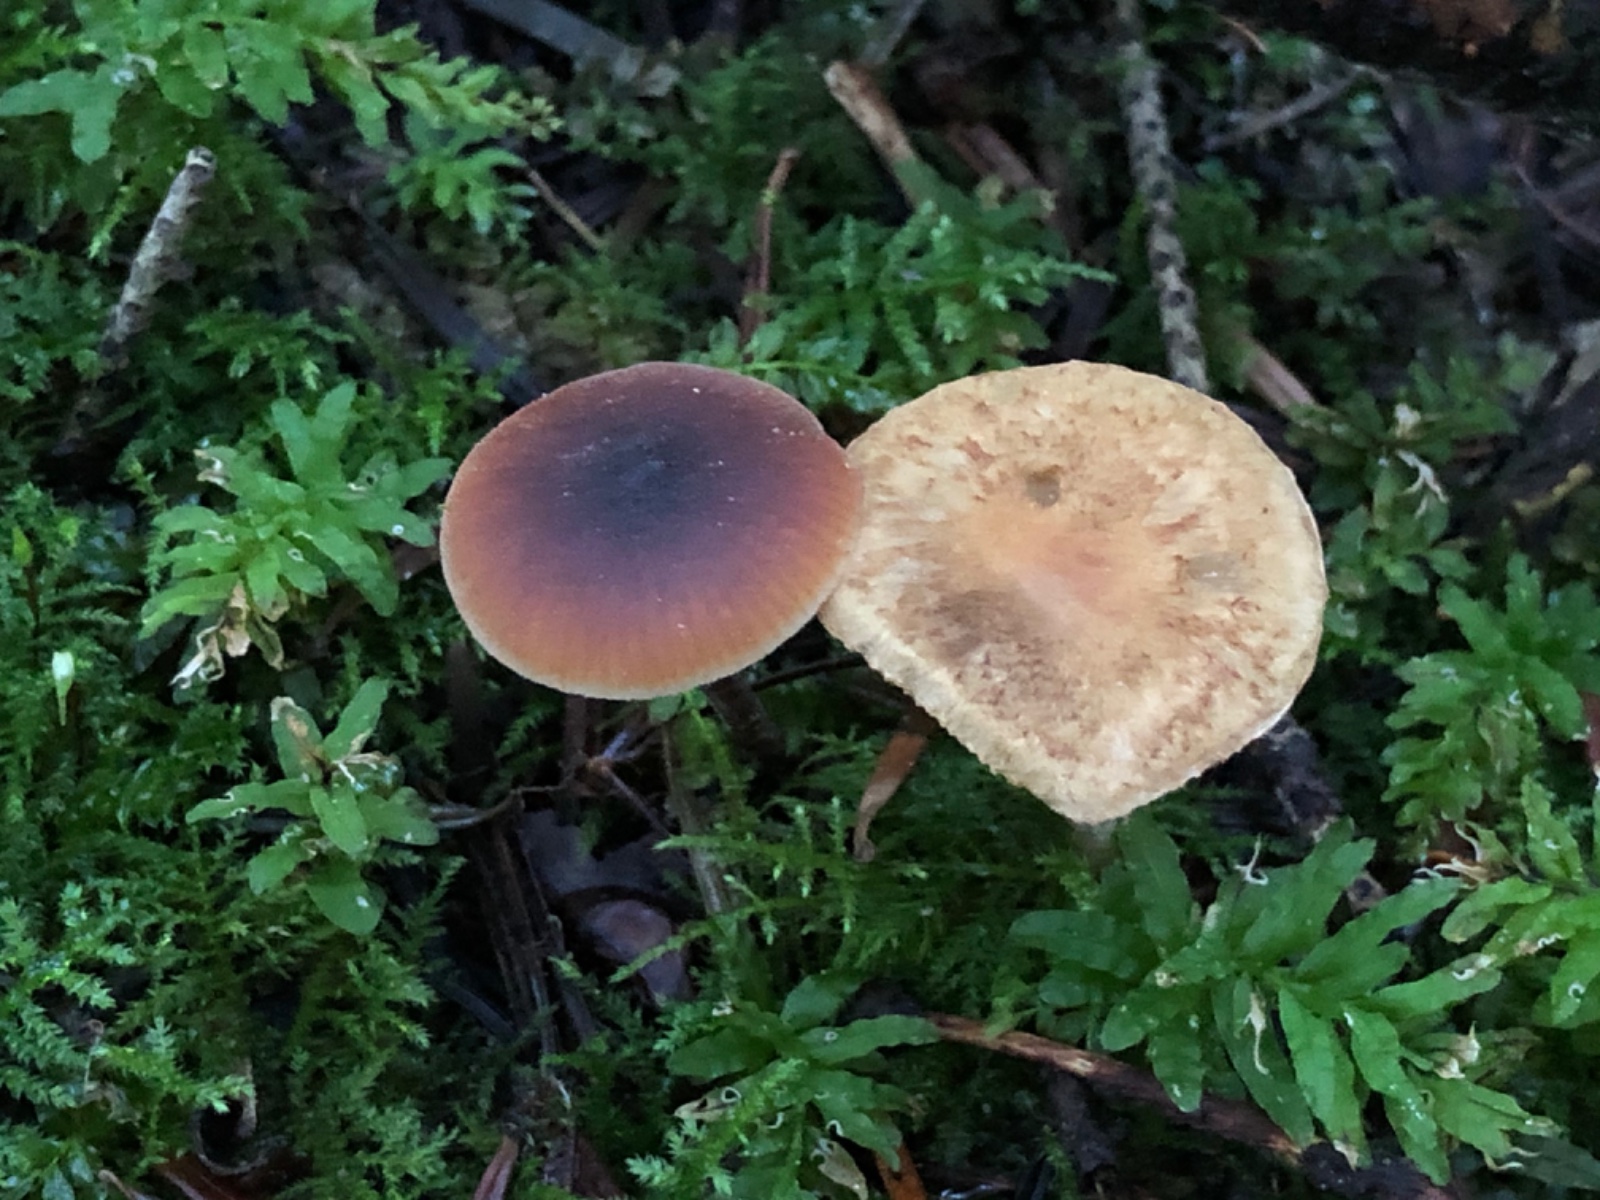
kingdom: Fungi
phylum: Basidiomycota
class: Agaricomycetes
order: Agaricales
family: Macrocystidiaceae
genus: Macrocystidia
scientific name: Macrocystidia
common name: agurkehat
